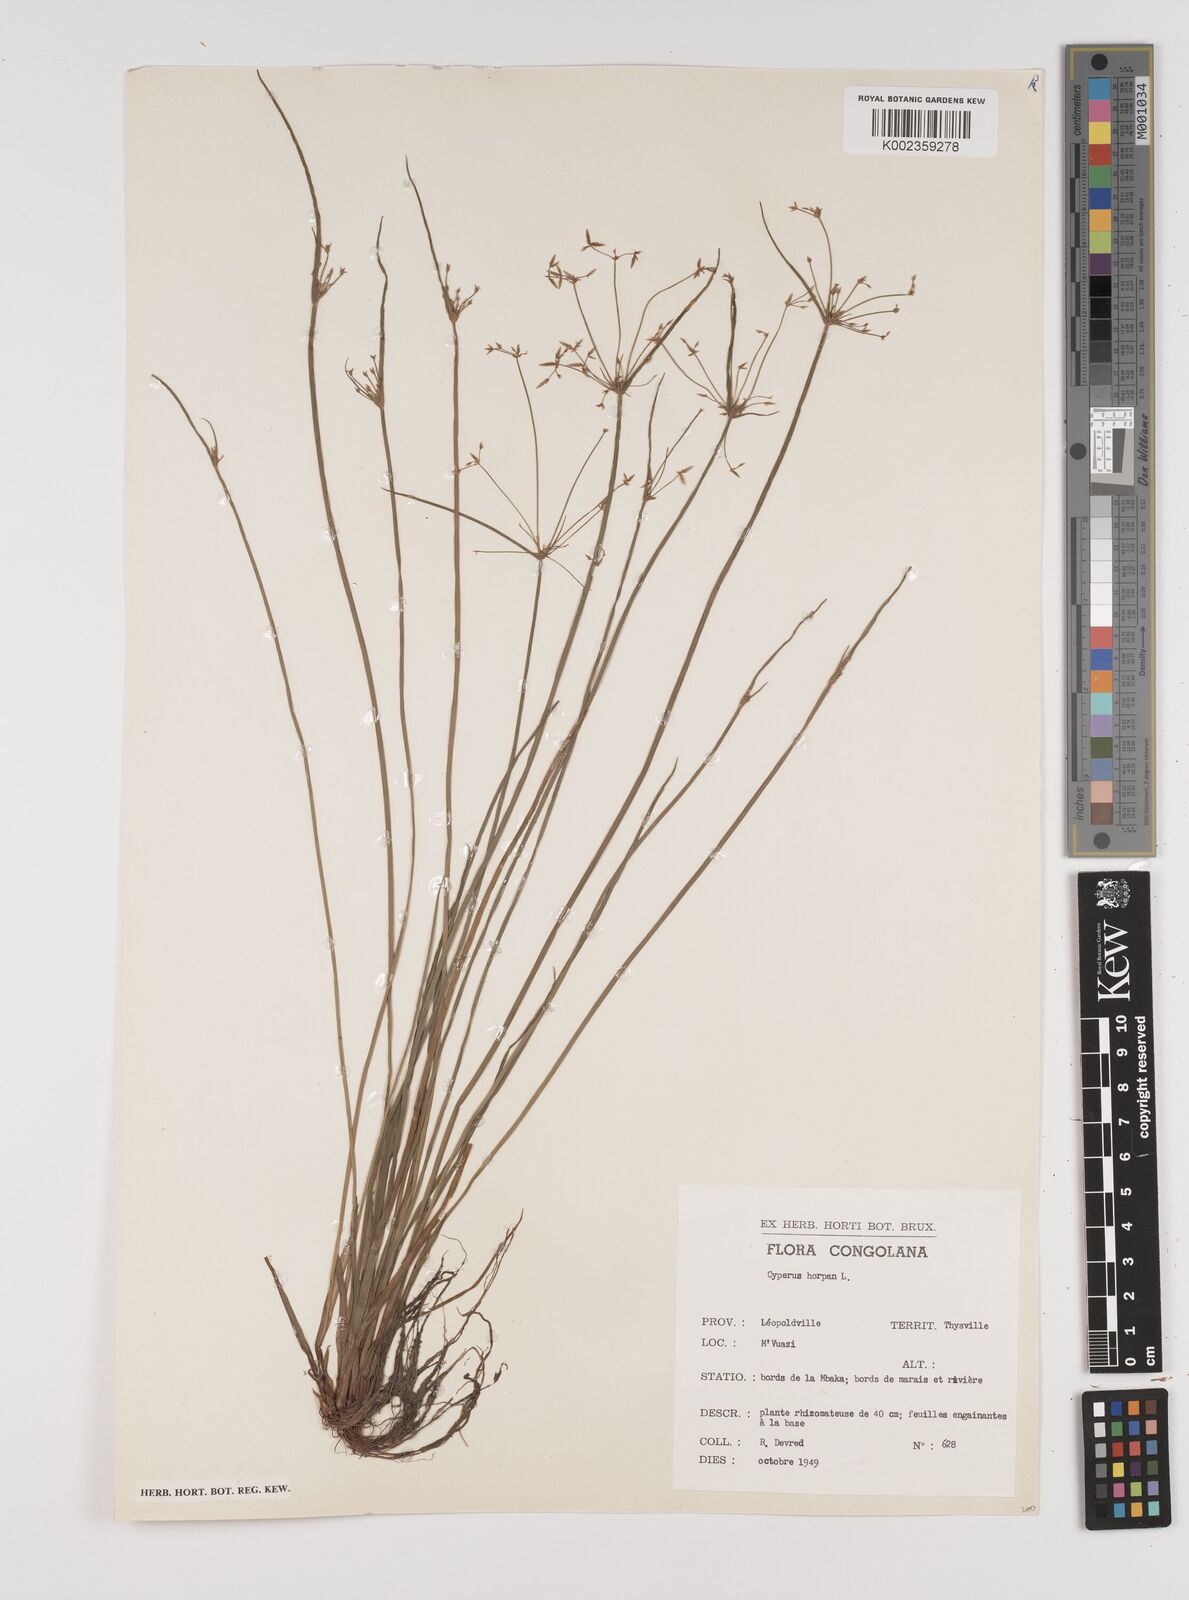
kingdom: Plantae
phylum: Tracheophyta
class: Liliopsida
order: Poales
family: Cyperaceae
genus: Cyperus
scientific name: Cyperus haspan
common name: Haspan flatsedge
